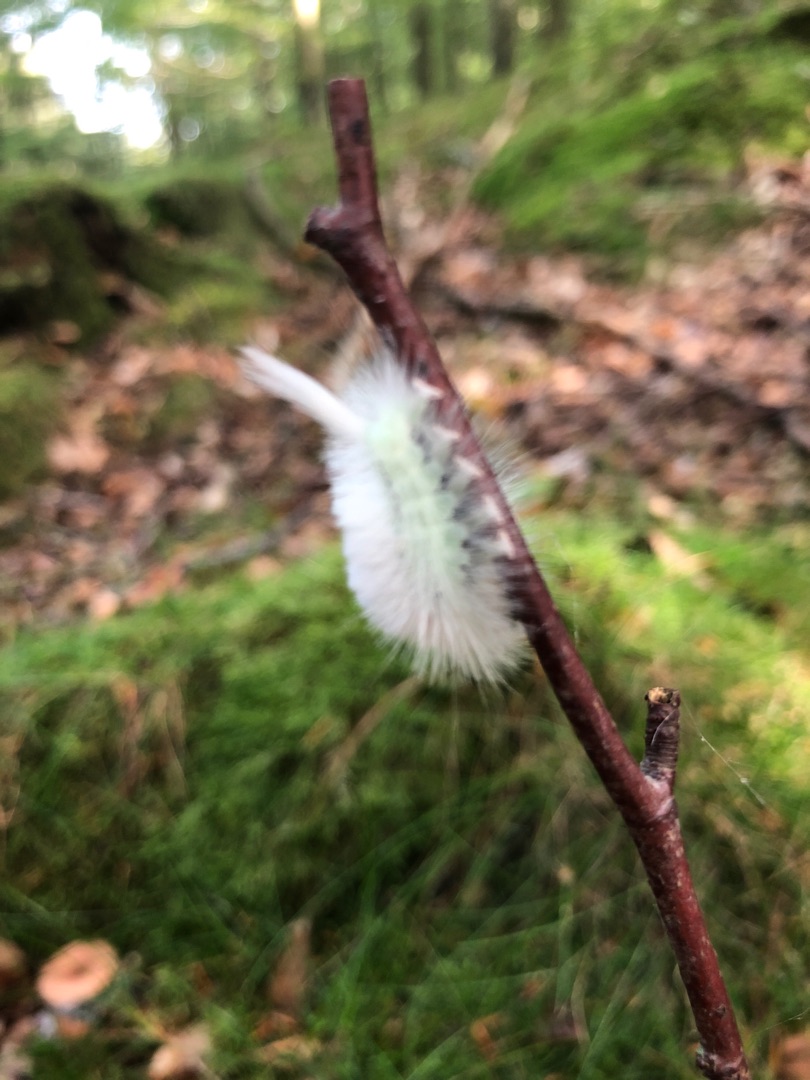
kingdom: Animalia
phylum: Arthropoda
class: Insecta
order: Lepidoptera
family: Erebidae
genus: Calliteara
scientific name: Calliteara pudibunda
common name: Bøgenonne
